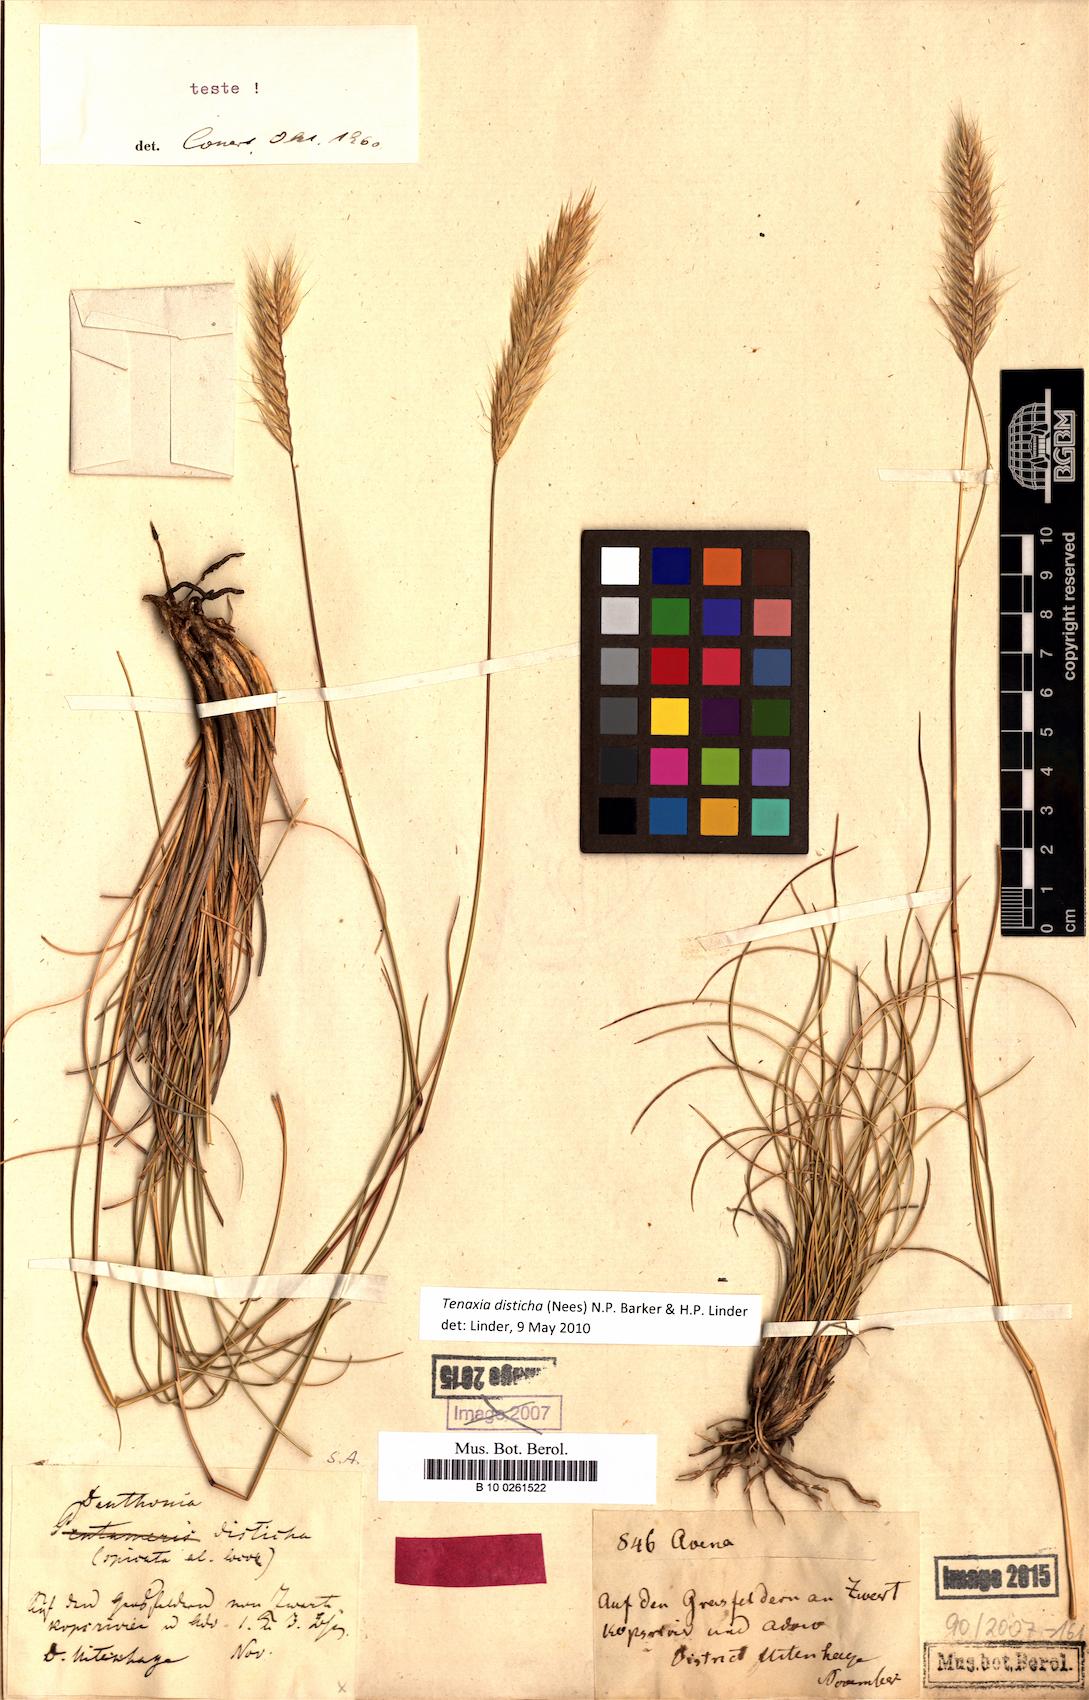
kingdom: Plantae
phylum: Tracheophyta
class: Liliopsida
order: Poales
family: Poaceae
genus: Tenaxia
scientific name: Tenaxia disticha
